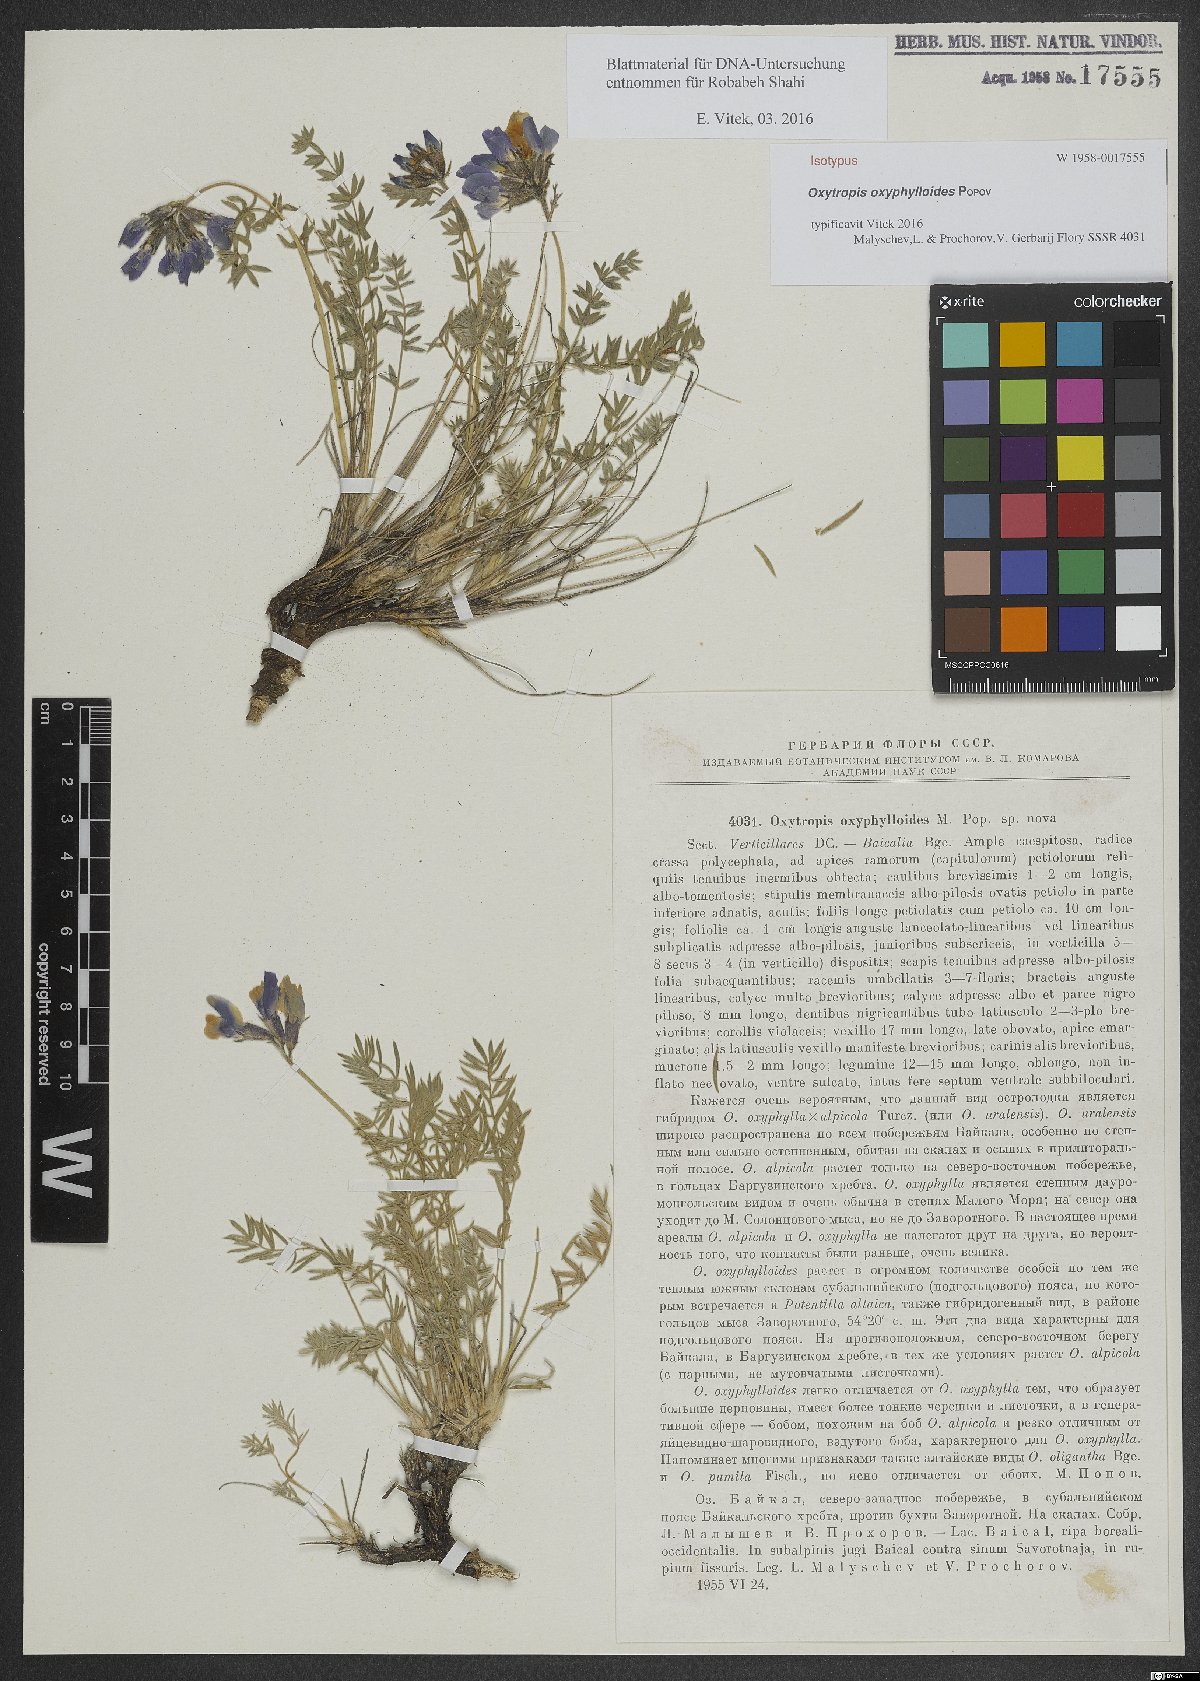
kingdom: Plantae
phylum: Tracheophyta
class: Magnoliopsida
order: Fabales
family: Fabaceae
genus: Oxytropis
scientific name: Oxytropis oxyphylloides
